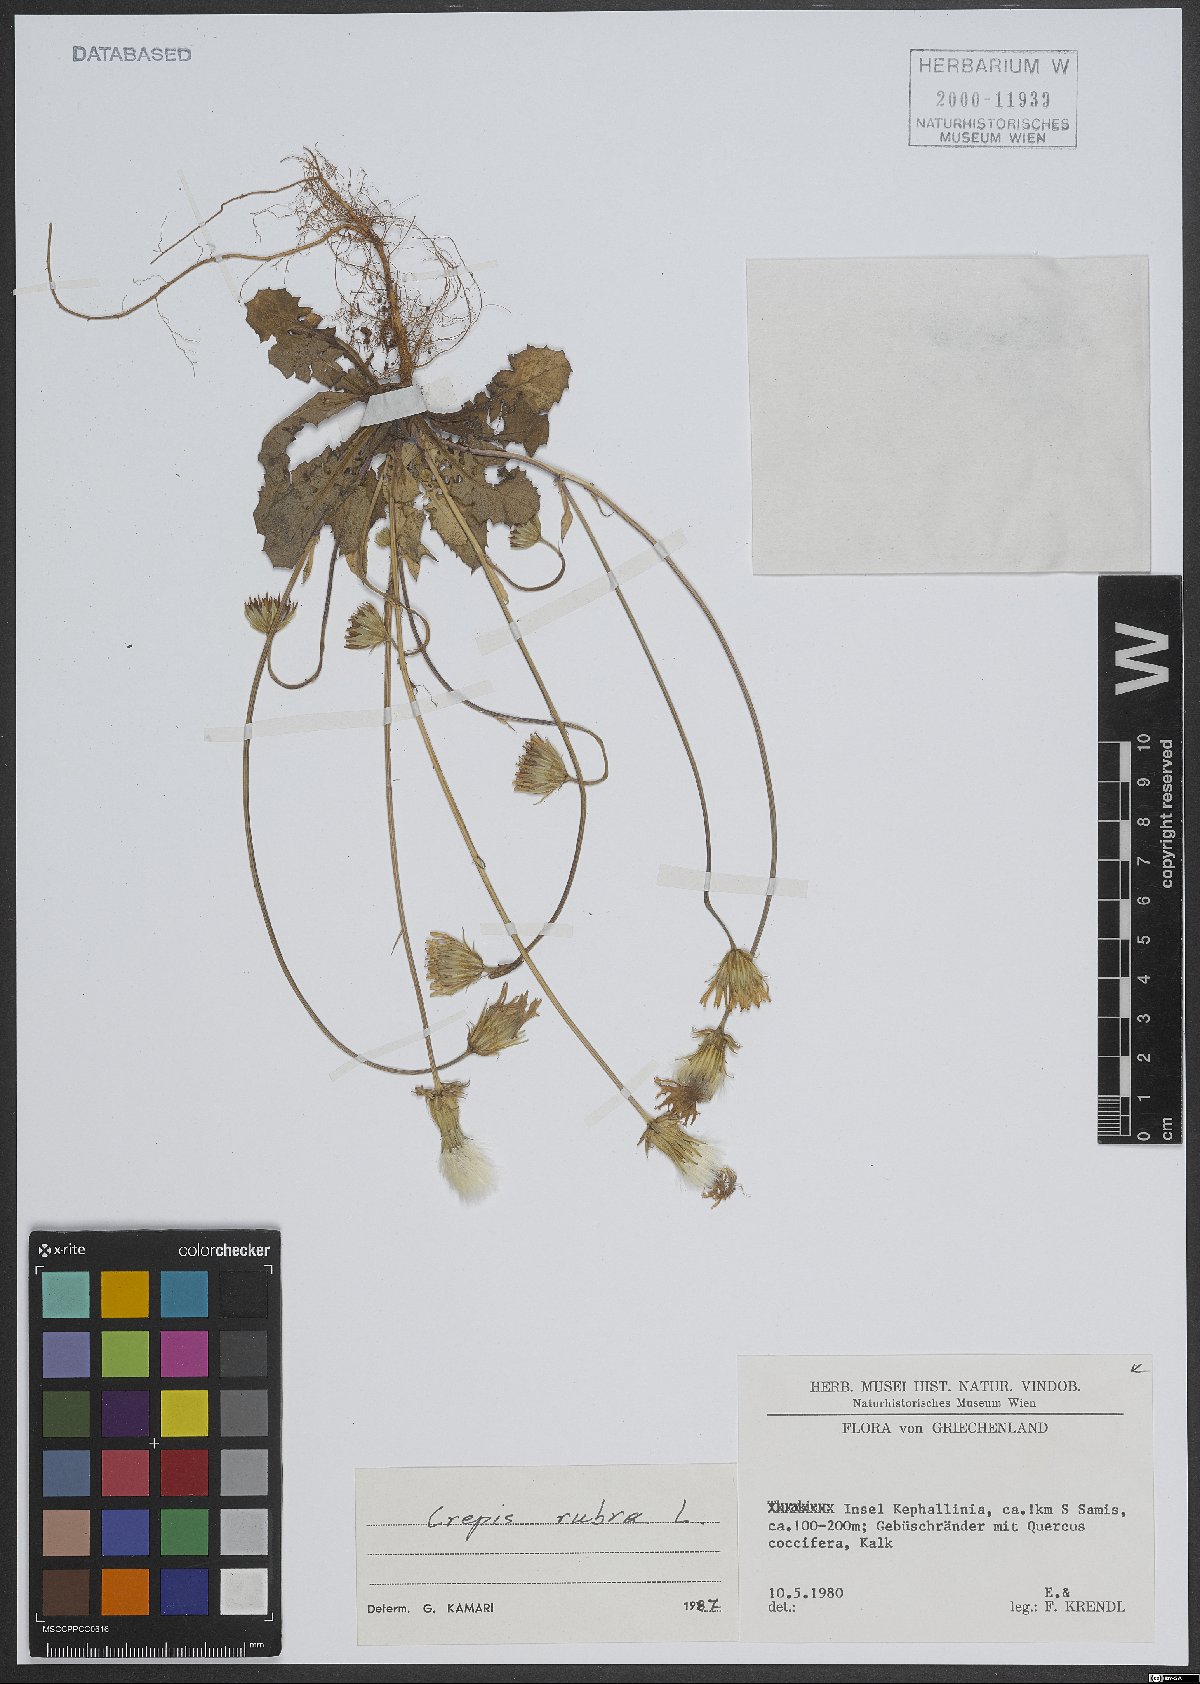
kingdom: Plantae
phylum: Tracheophyta
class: Magnoliopsida
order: Asterales
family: Asteraceae
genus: Crepis
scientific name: Crepis rubra
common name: Pink hawk's-beard
